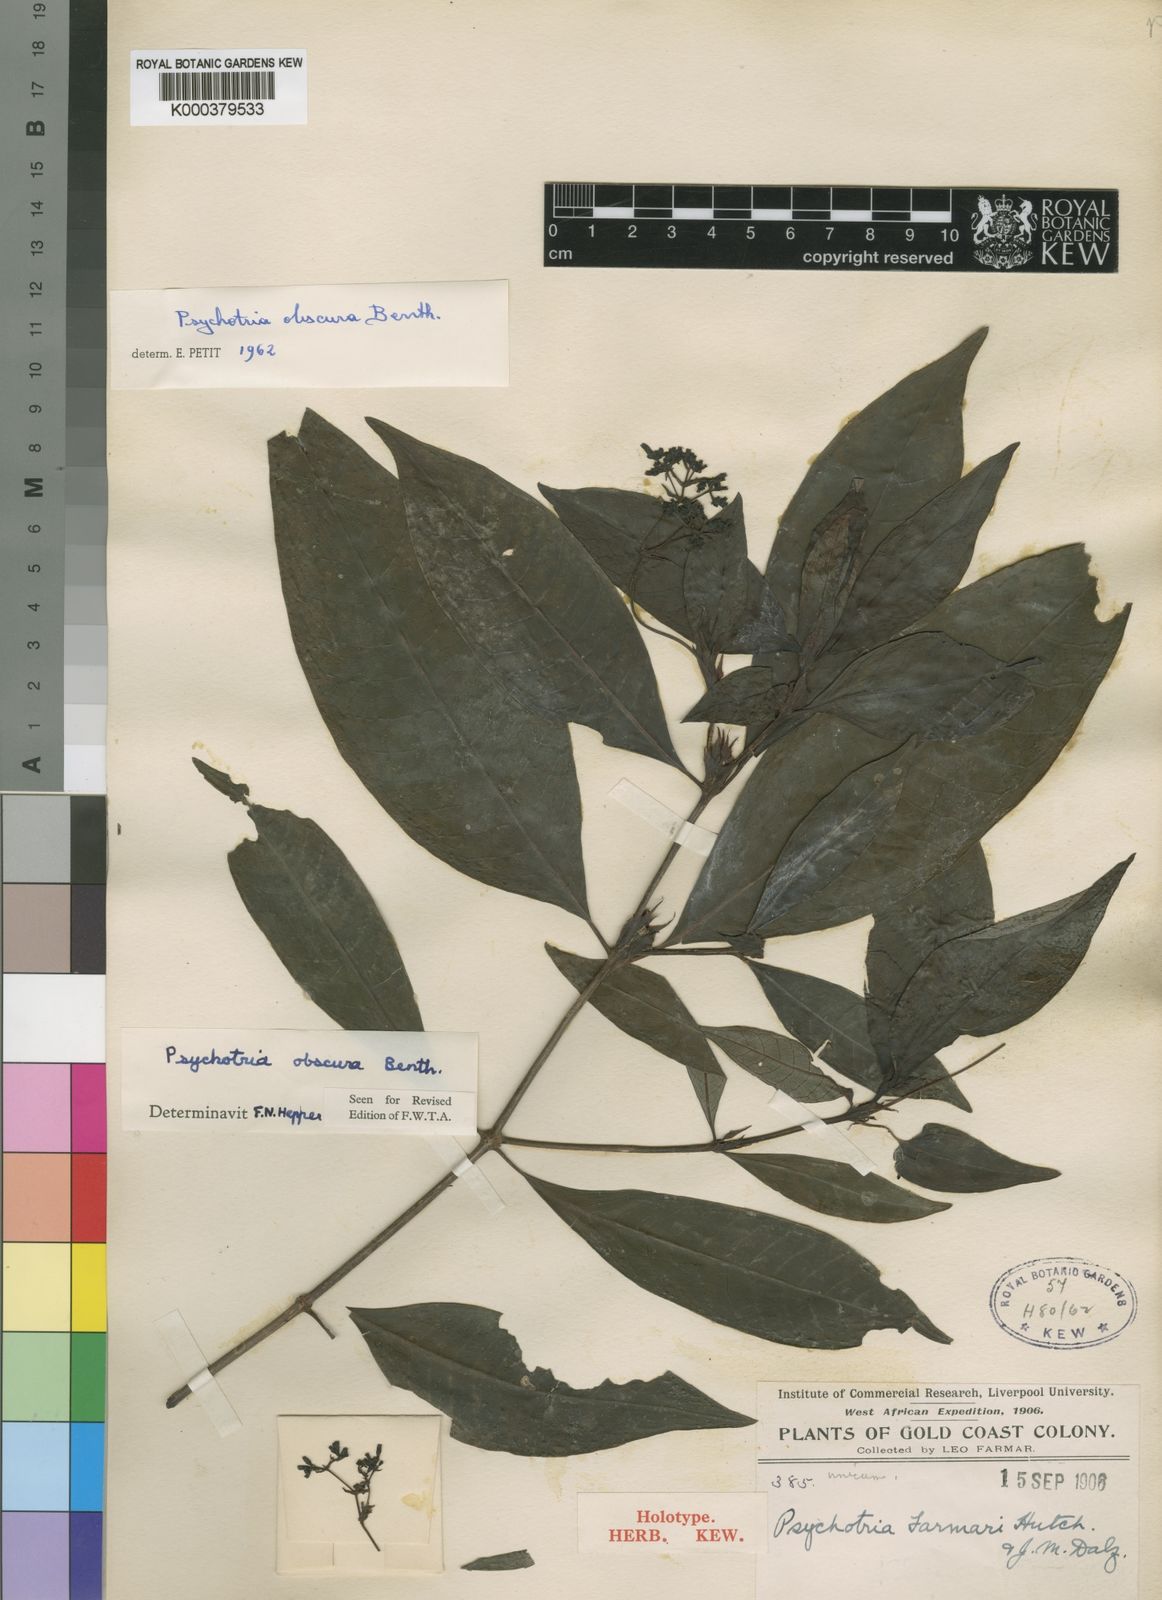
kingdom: Plantae
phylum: Tracheophyta
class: Magnoliopsida
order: Gentianales
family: Rubiaceae
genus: Psychotria
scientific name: Psychotria schweinfurthii
